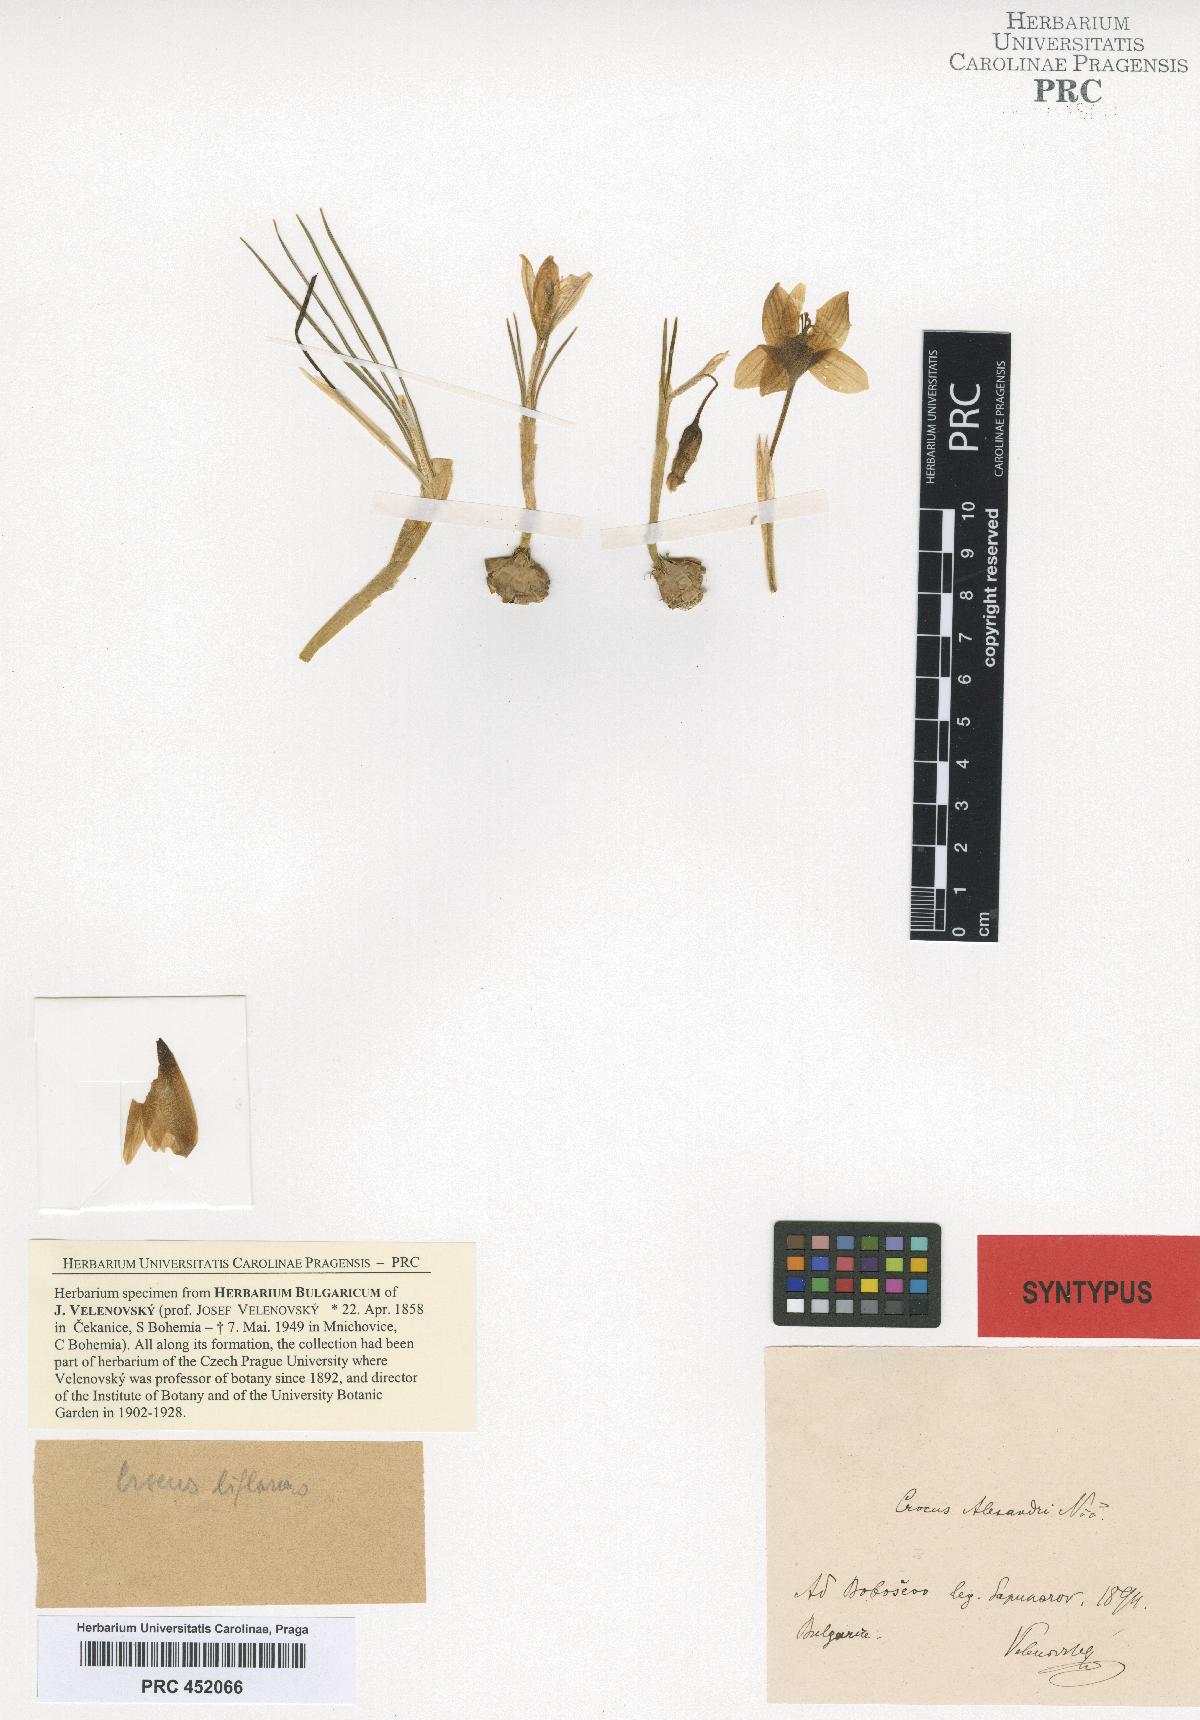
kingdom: Plantae
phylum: Tracheophyta
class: Liliopsida
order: Asparagales
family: Iridaceae
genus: Crocus
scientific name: Crocus alexandri
